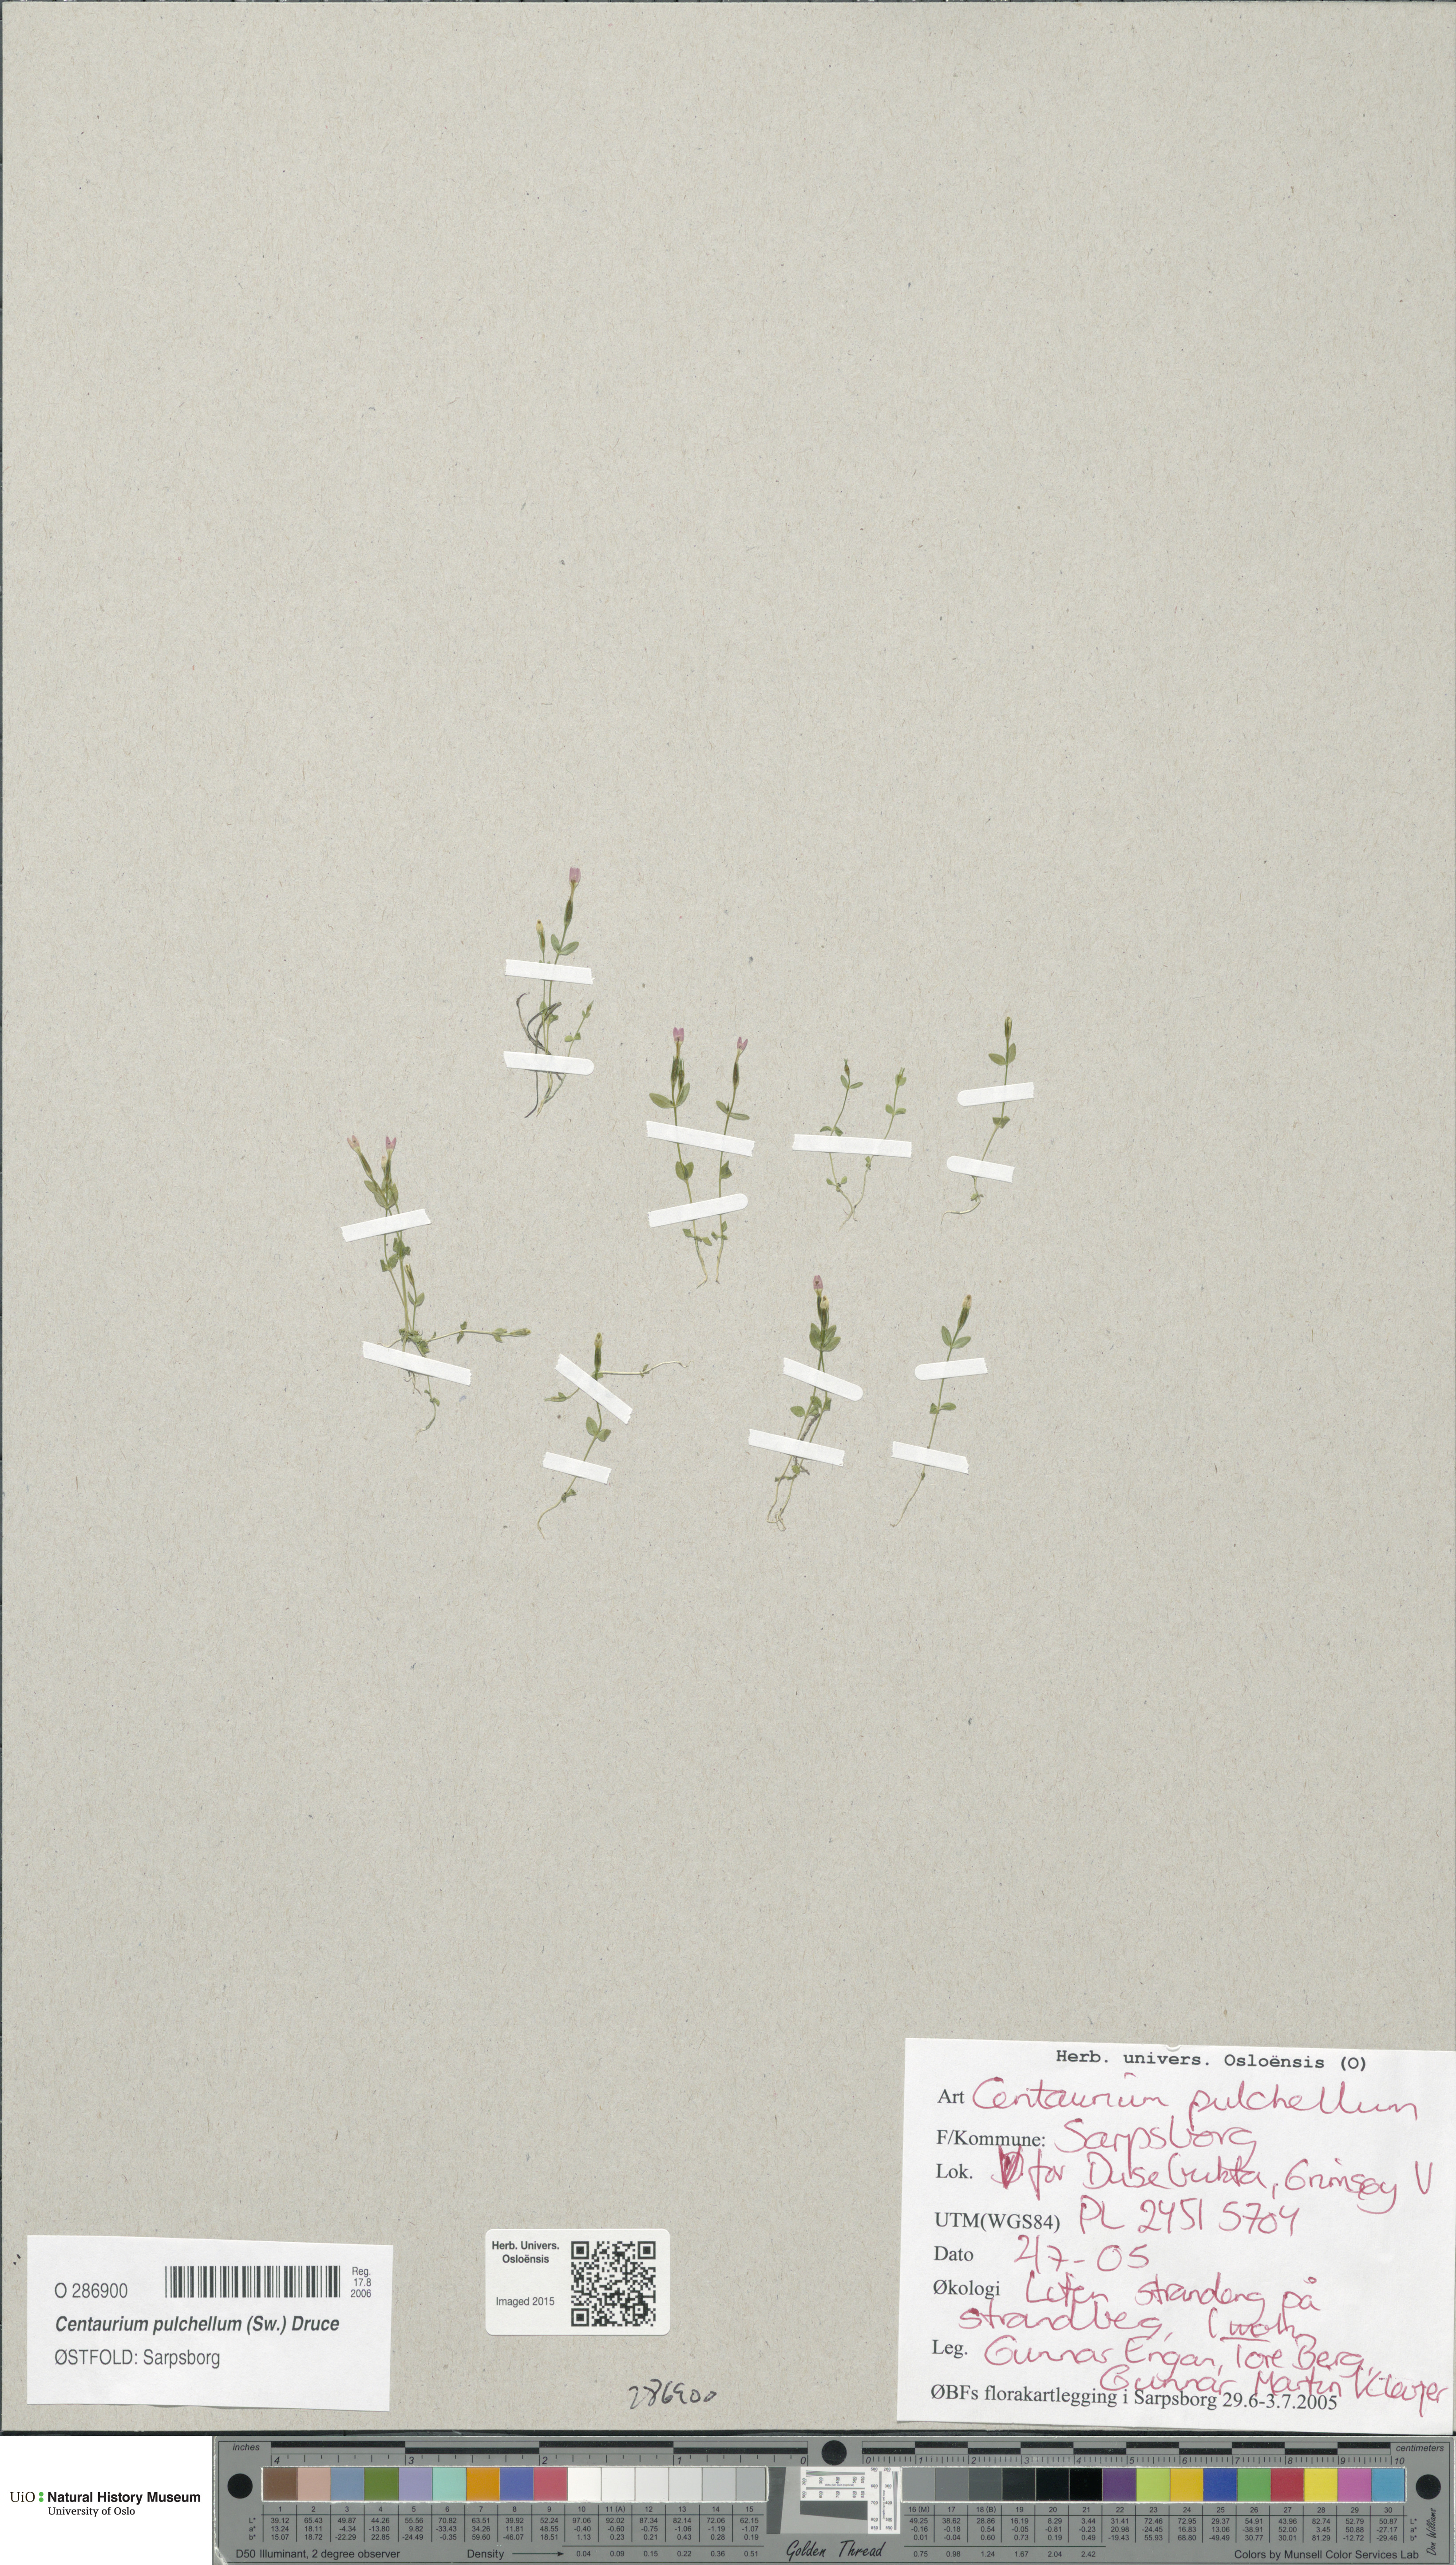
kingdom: Plantae
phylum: Tracheophyta
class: Magnoliopsida
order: Gentianales
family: Gentianaceae
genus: Centaurium
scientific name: Centaurium pulchellum
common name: Lesser centaury
